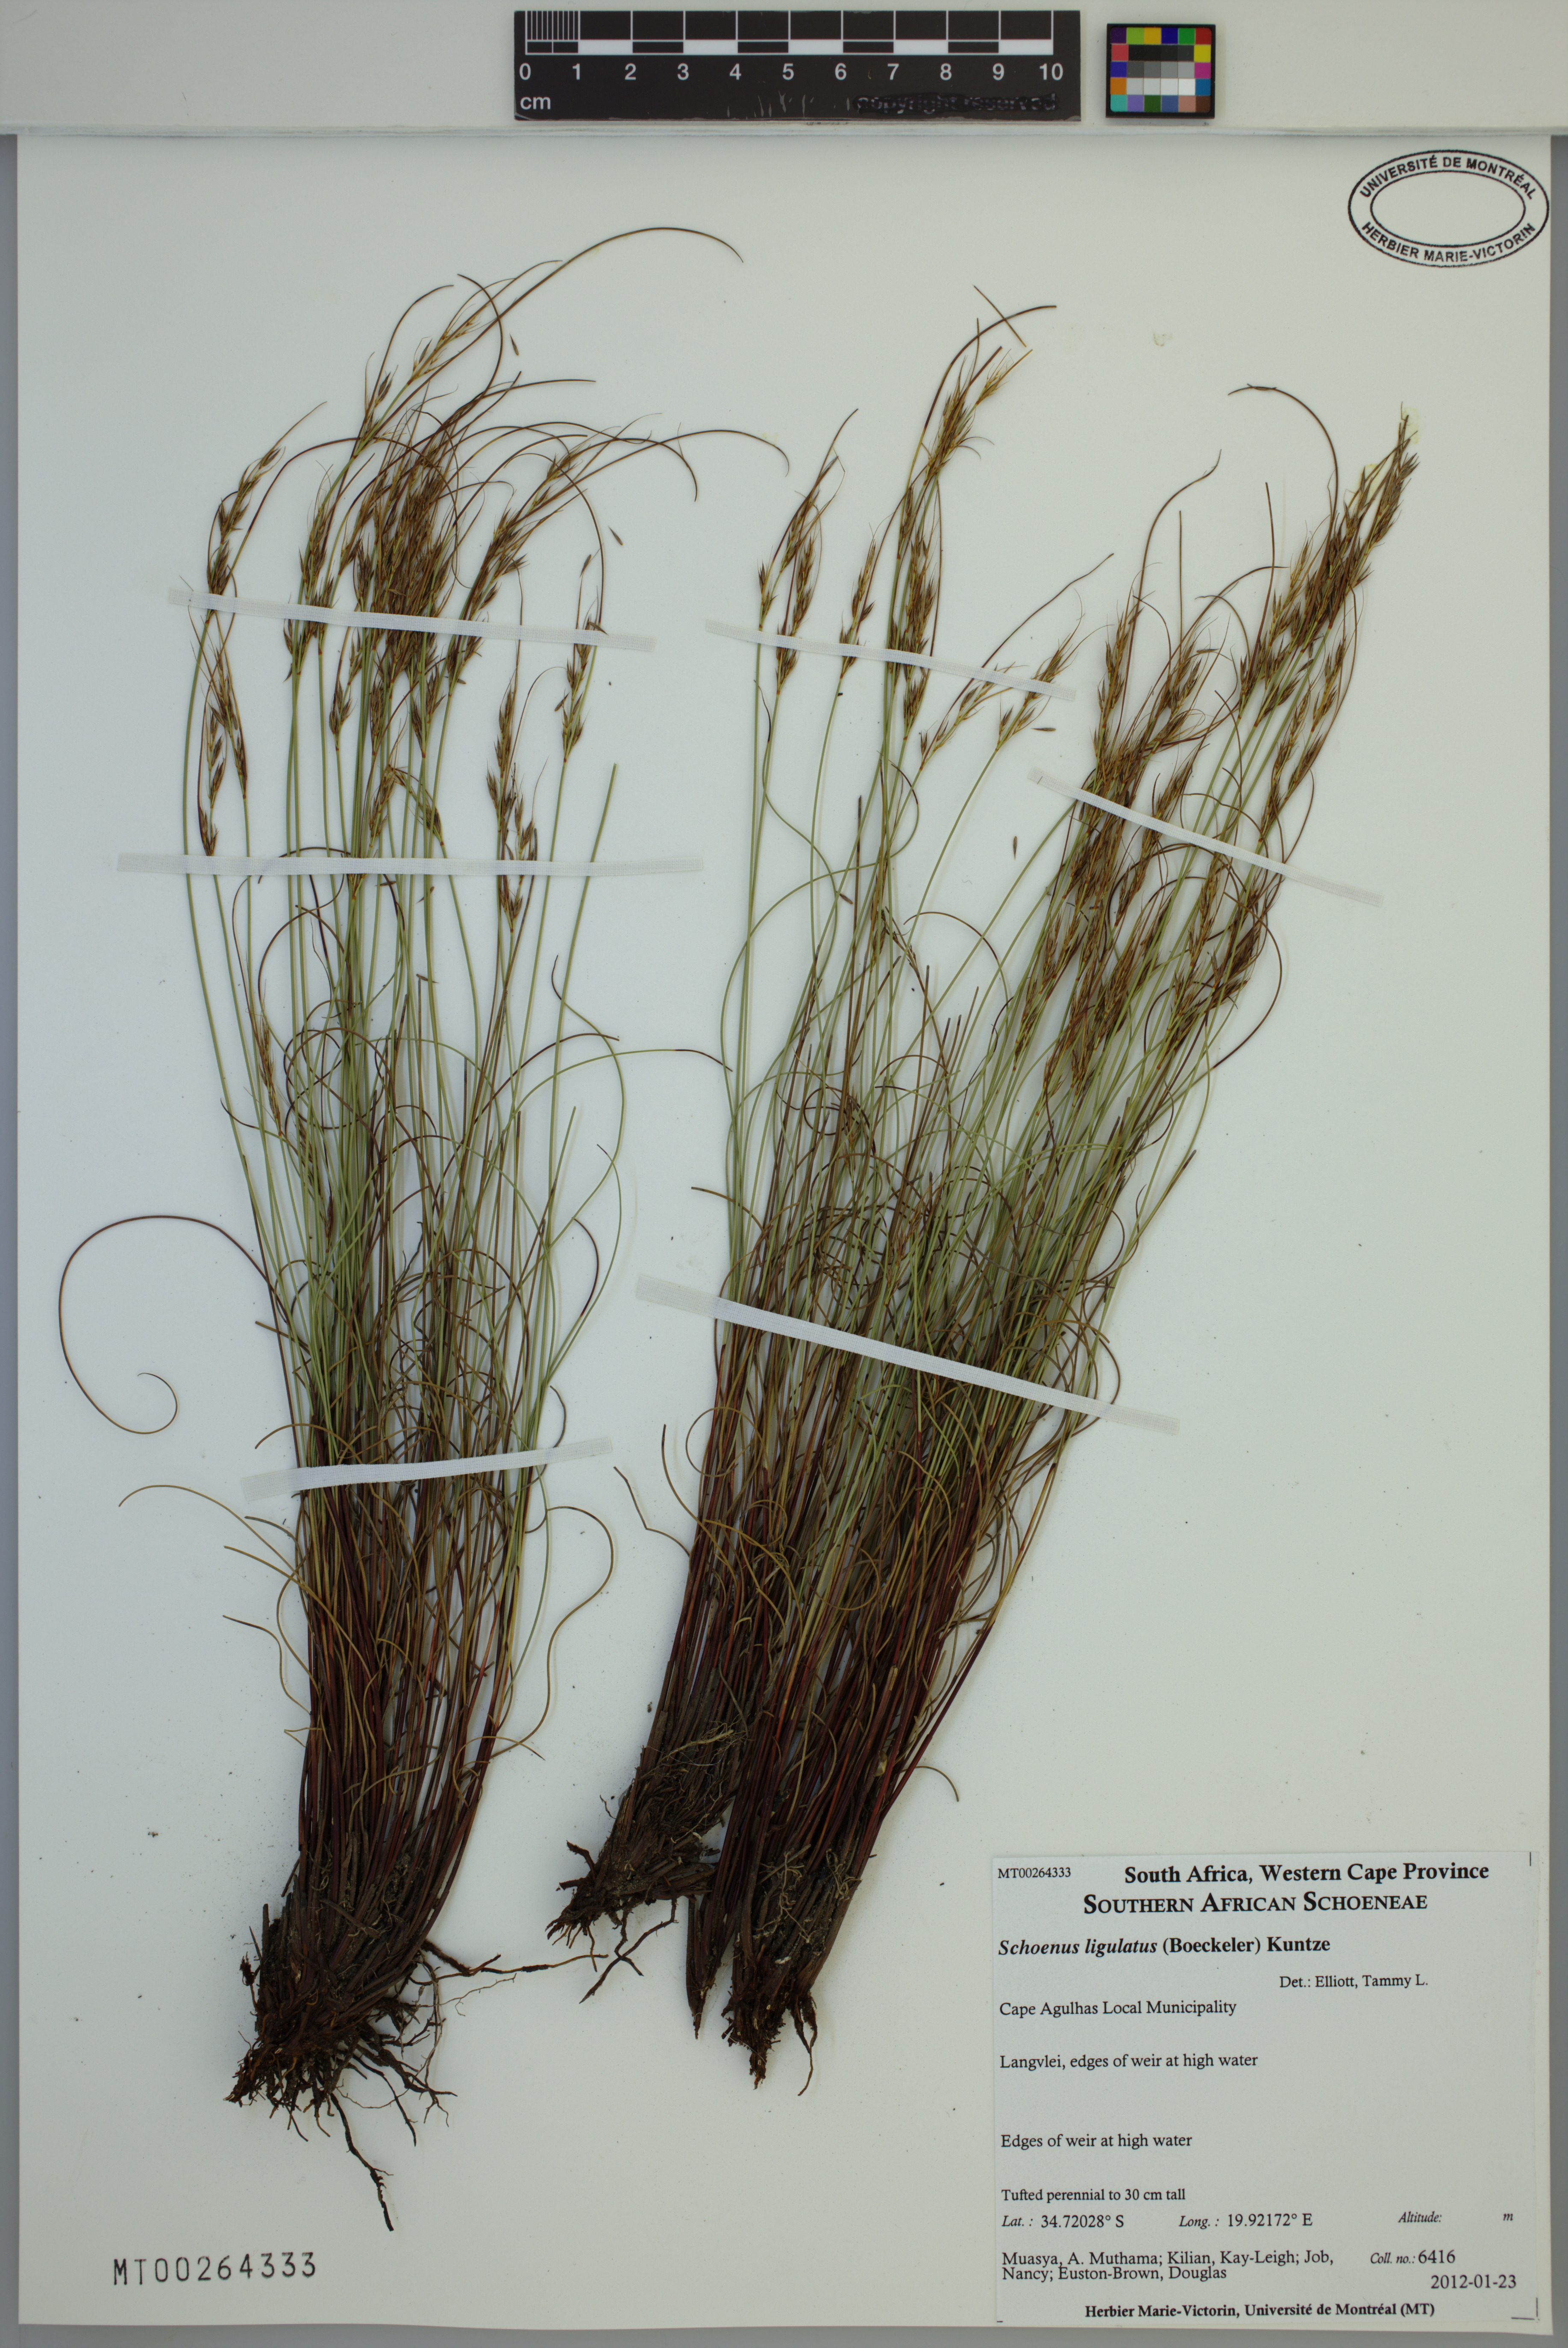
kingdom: Plantae
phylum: Tracheophyta
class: Liliopsida
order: Poales
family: Cyperaceae
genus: Schoenus
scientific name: Schoenus ligulatus
